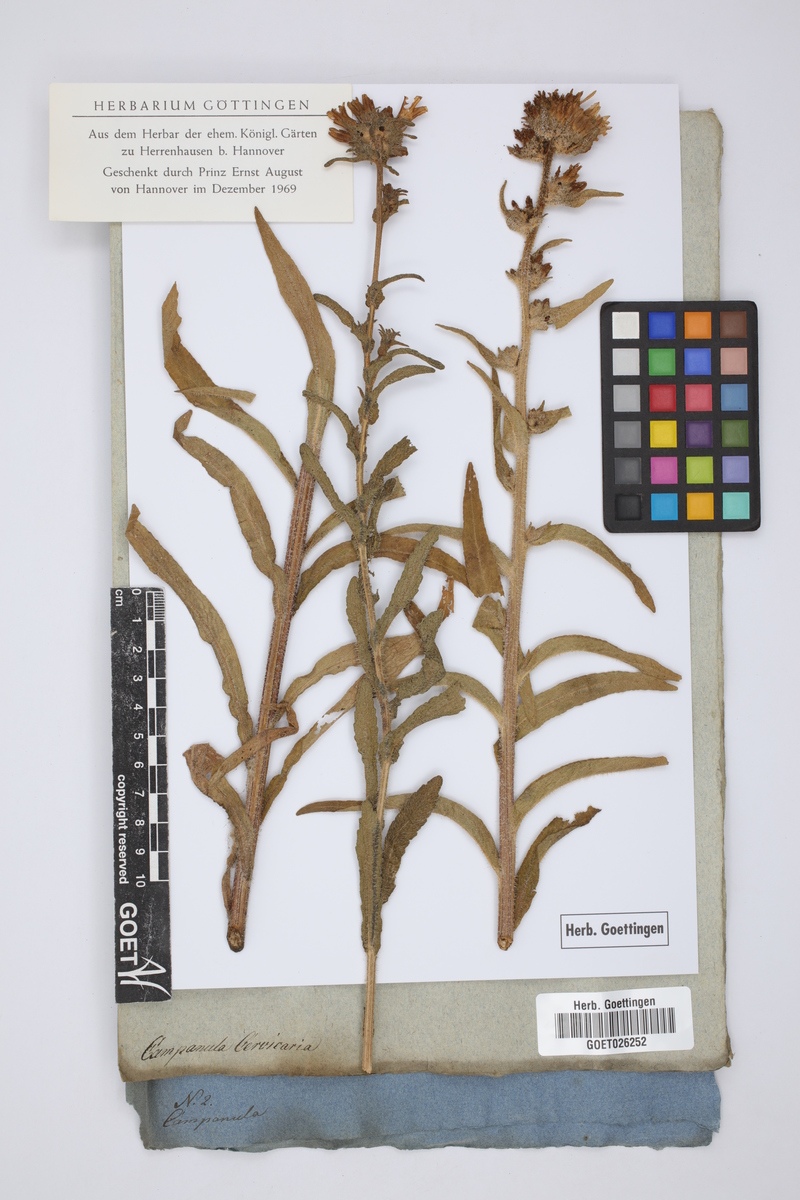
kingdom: Plantae
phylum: Tracheophyta
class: Magnoliopsida
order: Asterales
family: Campanulaceae
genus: Campanula
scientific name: Campanula cervicaria
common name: Bristly bellflower
